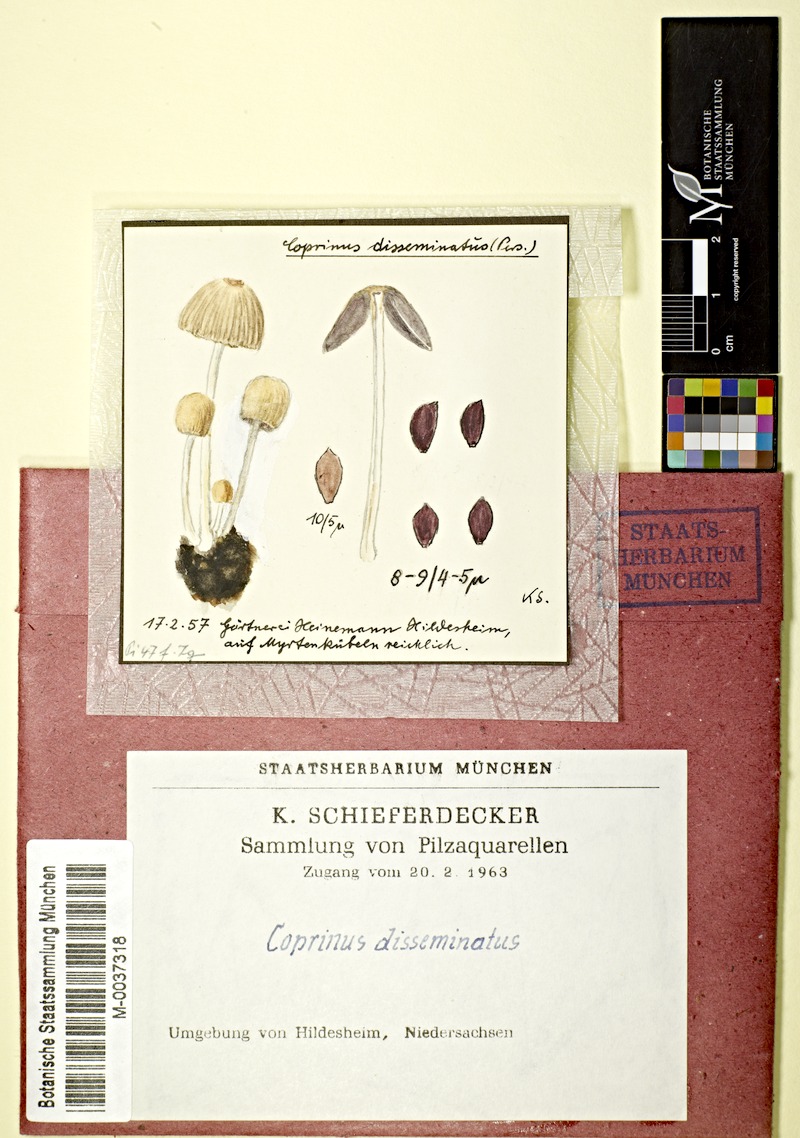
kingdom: Fungi
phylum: Basidiomycota
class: Agaricomycetes
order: Agaricales
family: Psathyrellaceae
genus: Coprinellus
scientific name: Coprinellus disseminatus
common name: Fairies' bonnets
